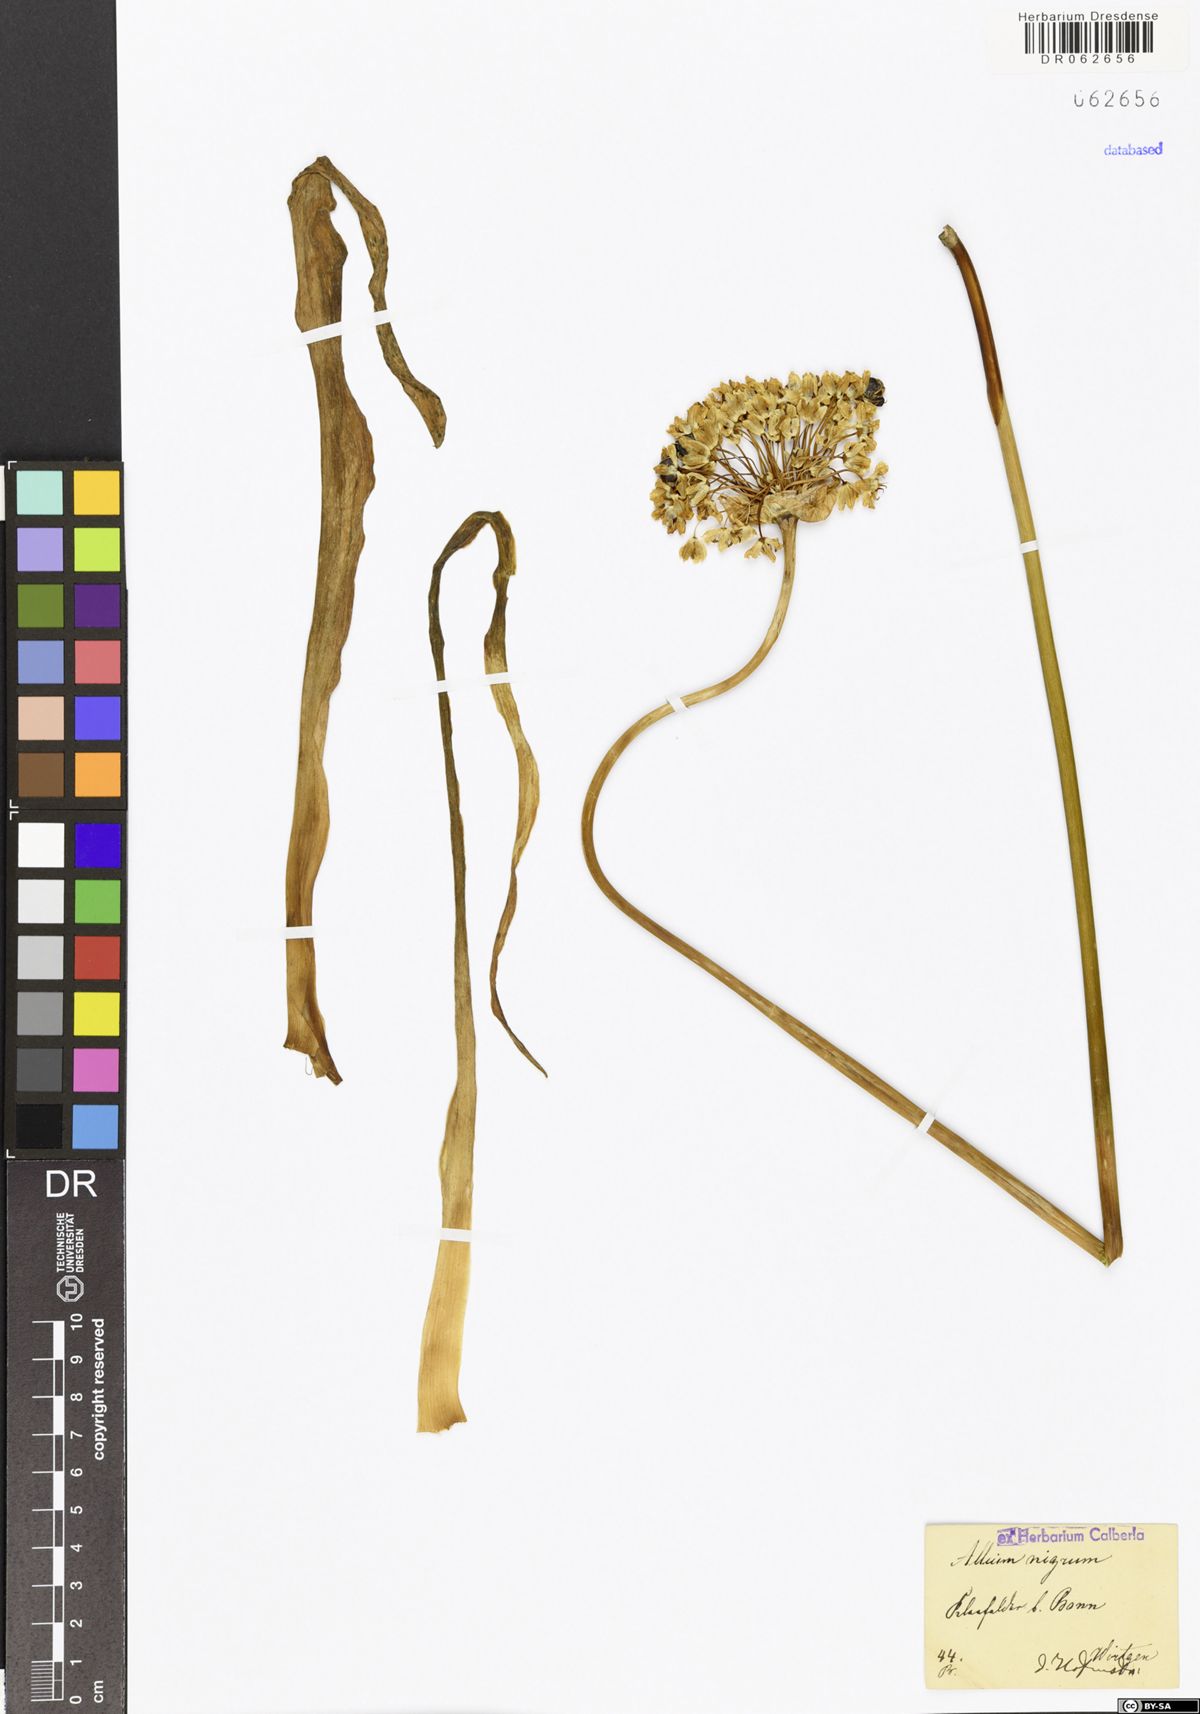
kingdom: Plantae
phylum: Tracheophyta
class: Liliopsida
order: Asparagales
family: Amaryllidaceae
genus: Allium
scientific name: Allium nigrum
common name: Black garlic
